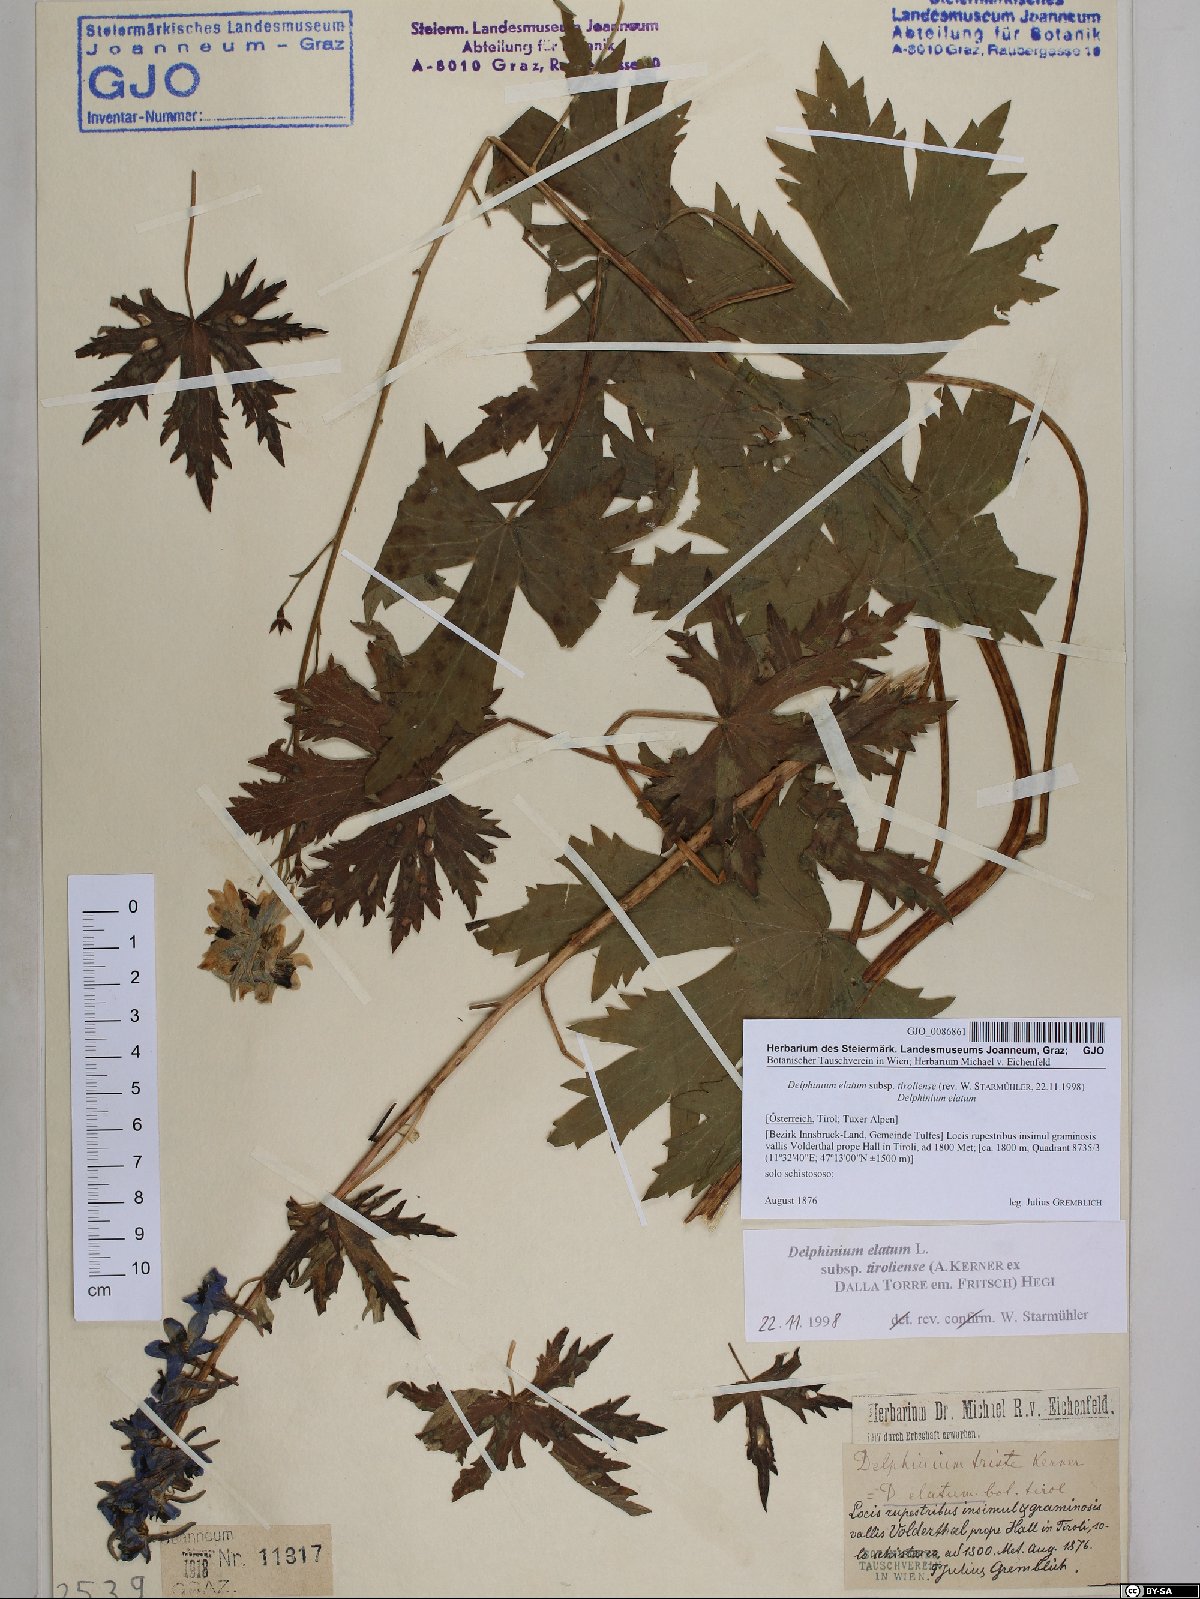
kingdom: Plantae
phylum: Tracheophyta
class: Magnoliopsida
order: Ranunculales
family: Ranunculaceae
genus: Delphinium
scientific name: Delphinium elatum
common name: Candle larkspur
